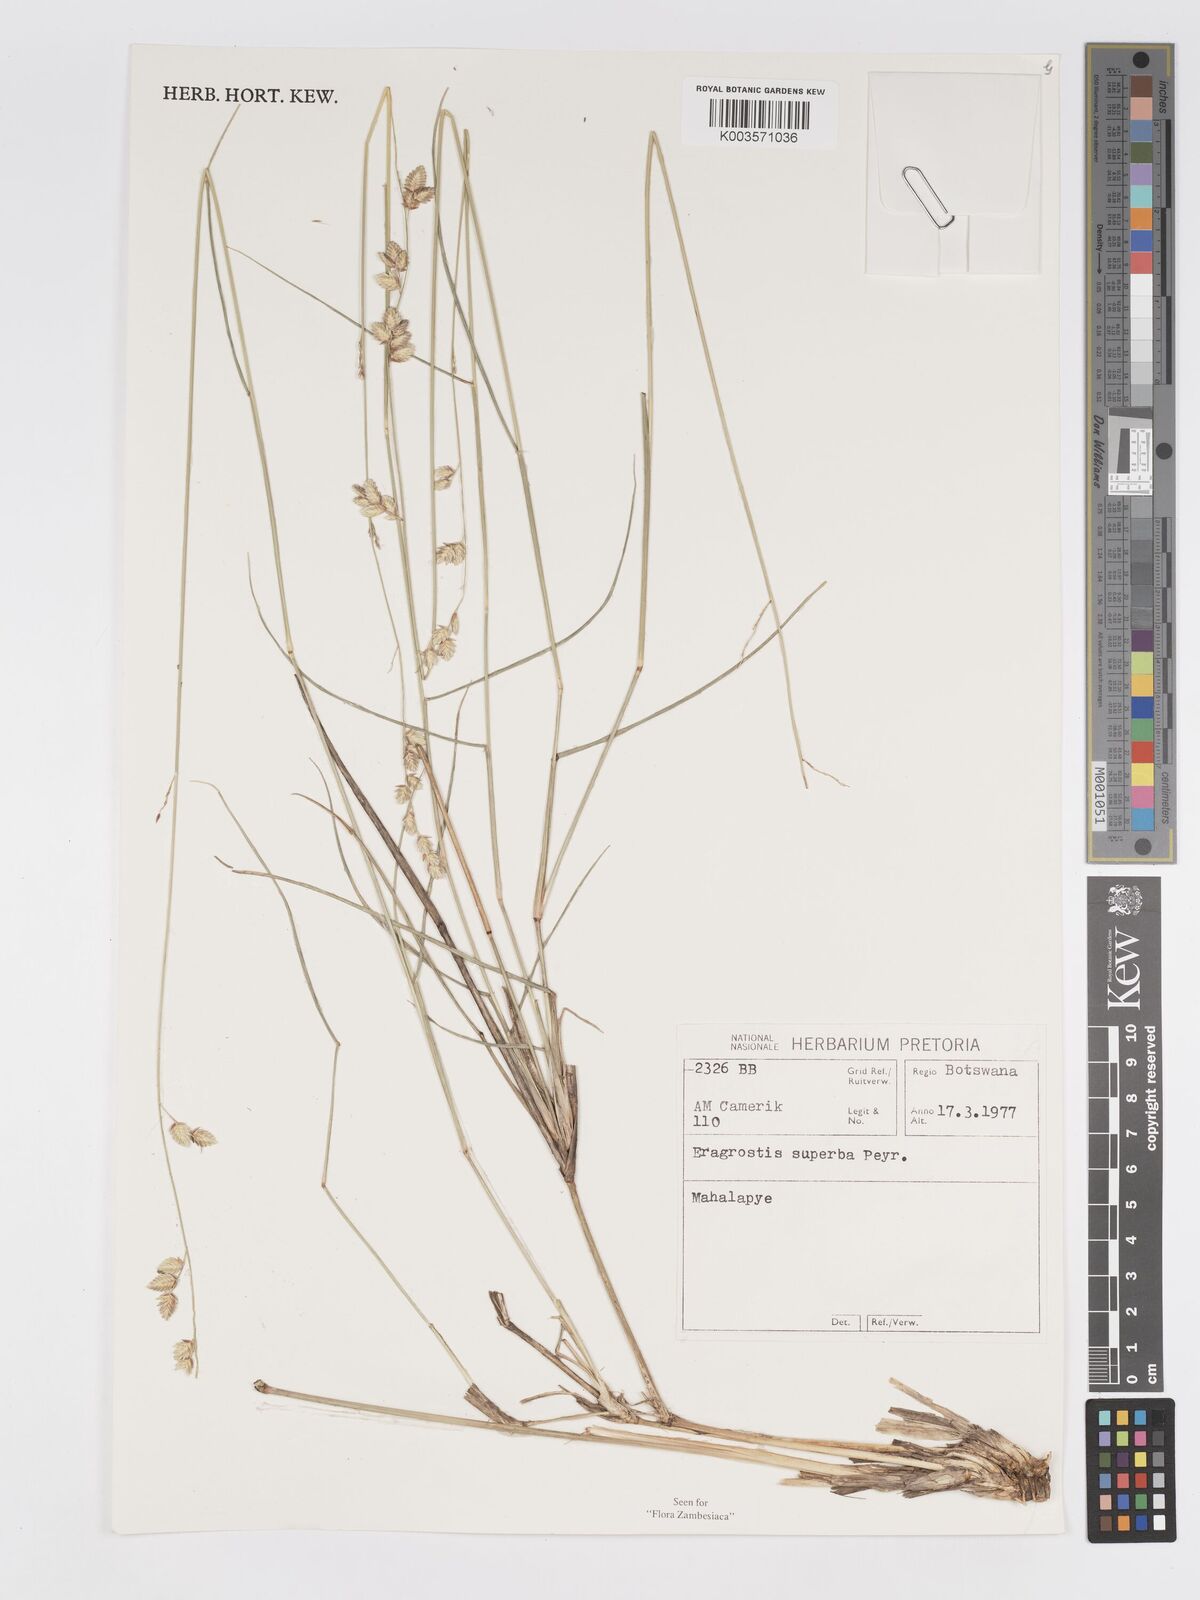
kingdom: Plantae
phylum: Tracheophyta
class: Liliopsida
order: Poales
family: Poaceae
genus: Eragrostis
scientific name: Eragrostis superba
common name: Wilman lovegrass
